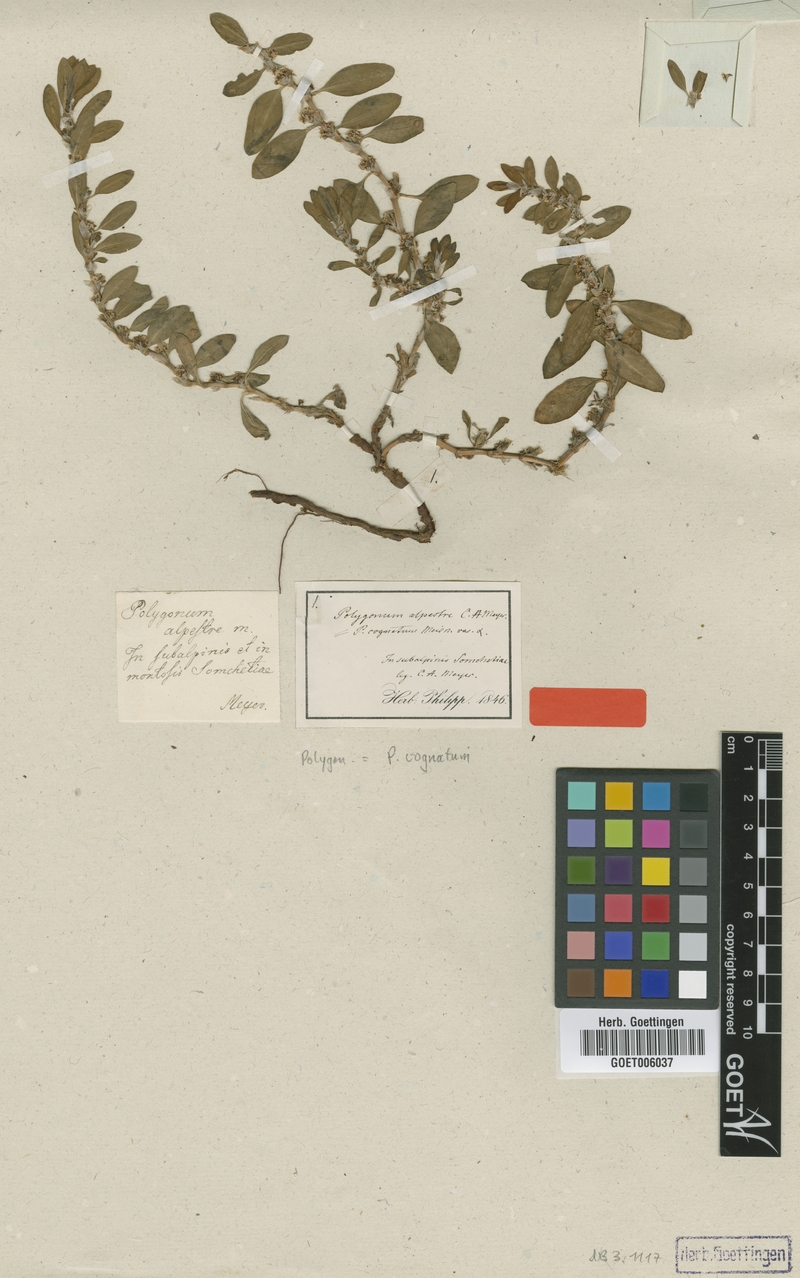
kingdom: Plantae
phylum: Tracheophyta
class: Magnoliopsida
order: Caryophyllales
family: Polygonaceae
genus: Polygonum
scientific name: Polygonum cognatum
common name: Indian knotgrass
